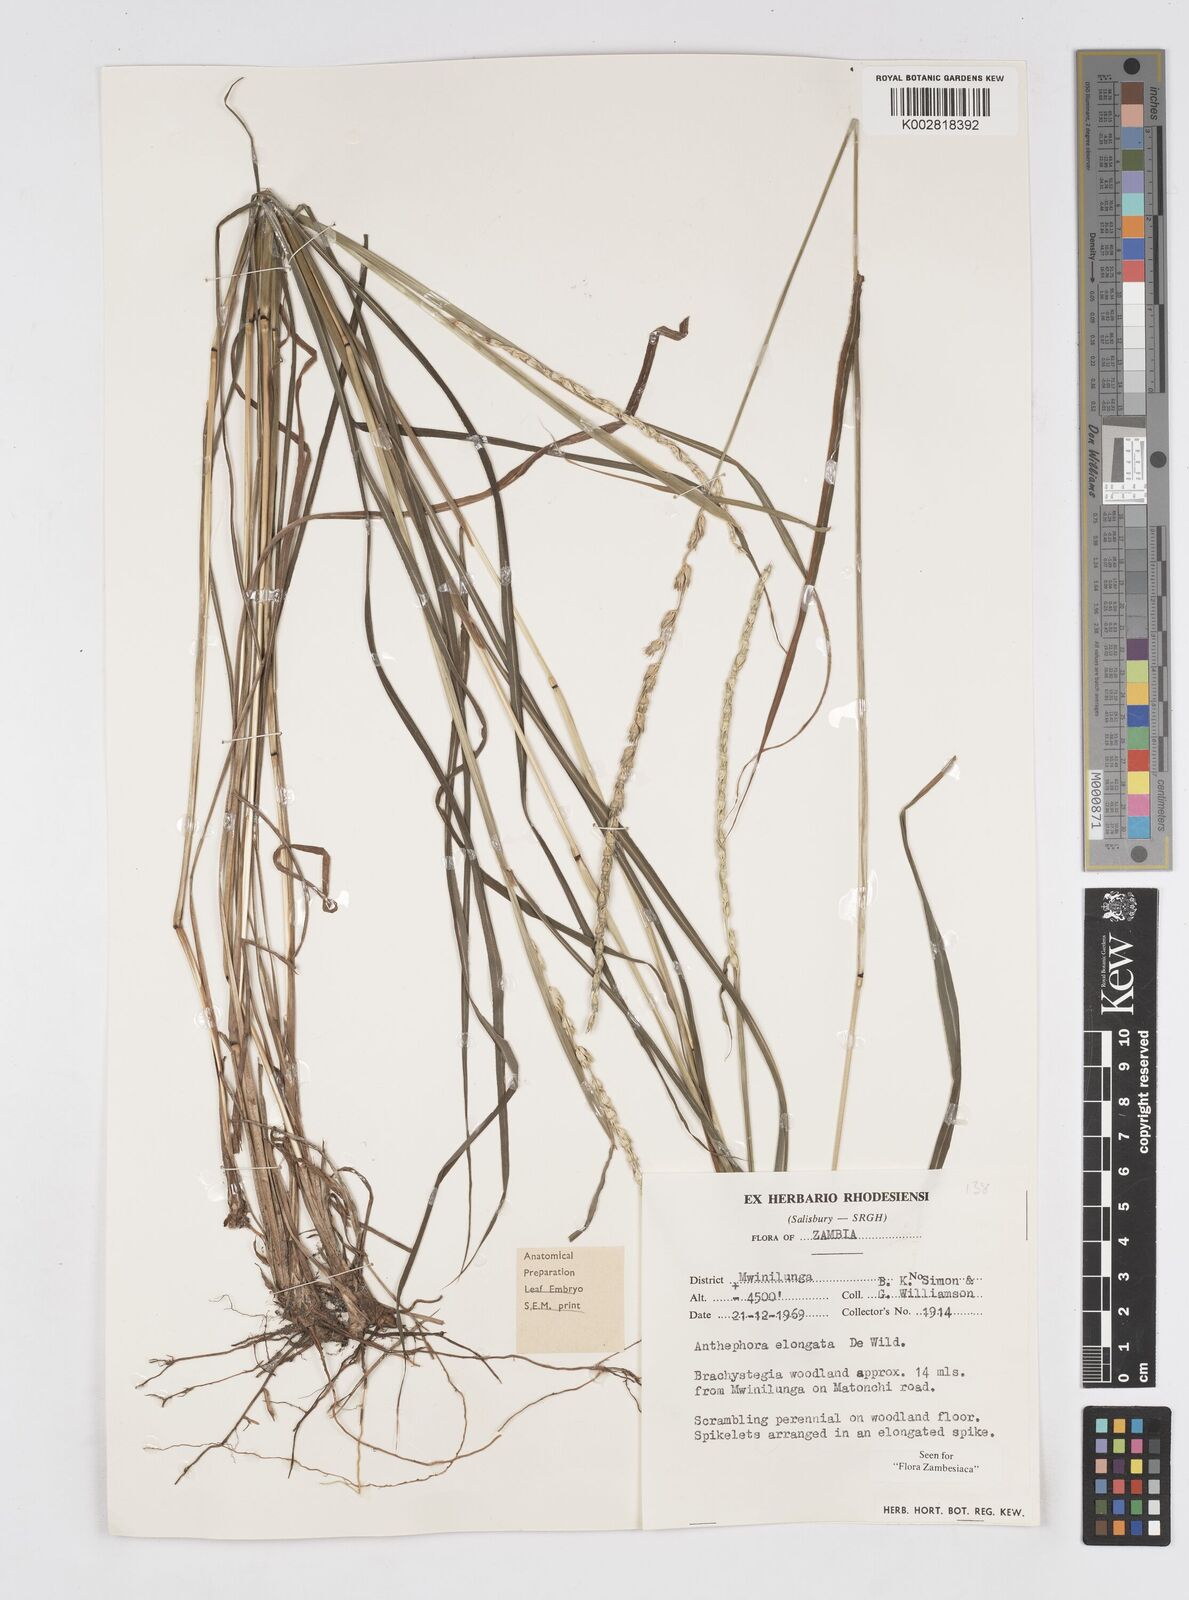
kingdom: Plantae
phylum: Tracheophyta
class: Liliopsida
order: Poales
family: Poaceae
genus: Anthephora
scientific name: Anthephora elongata
